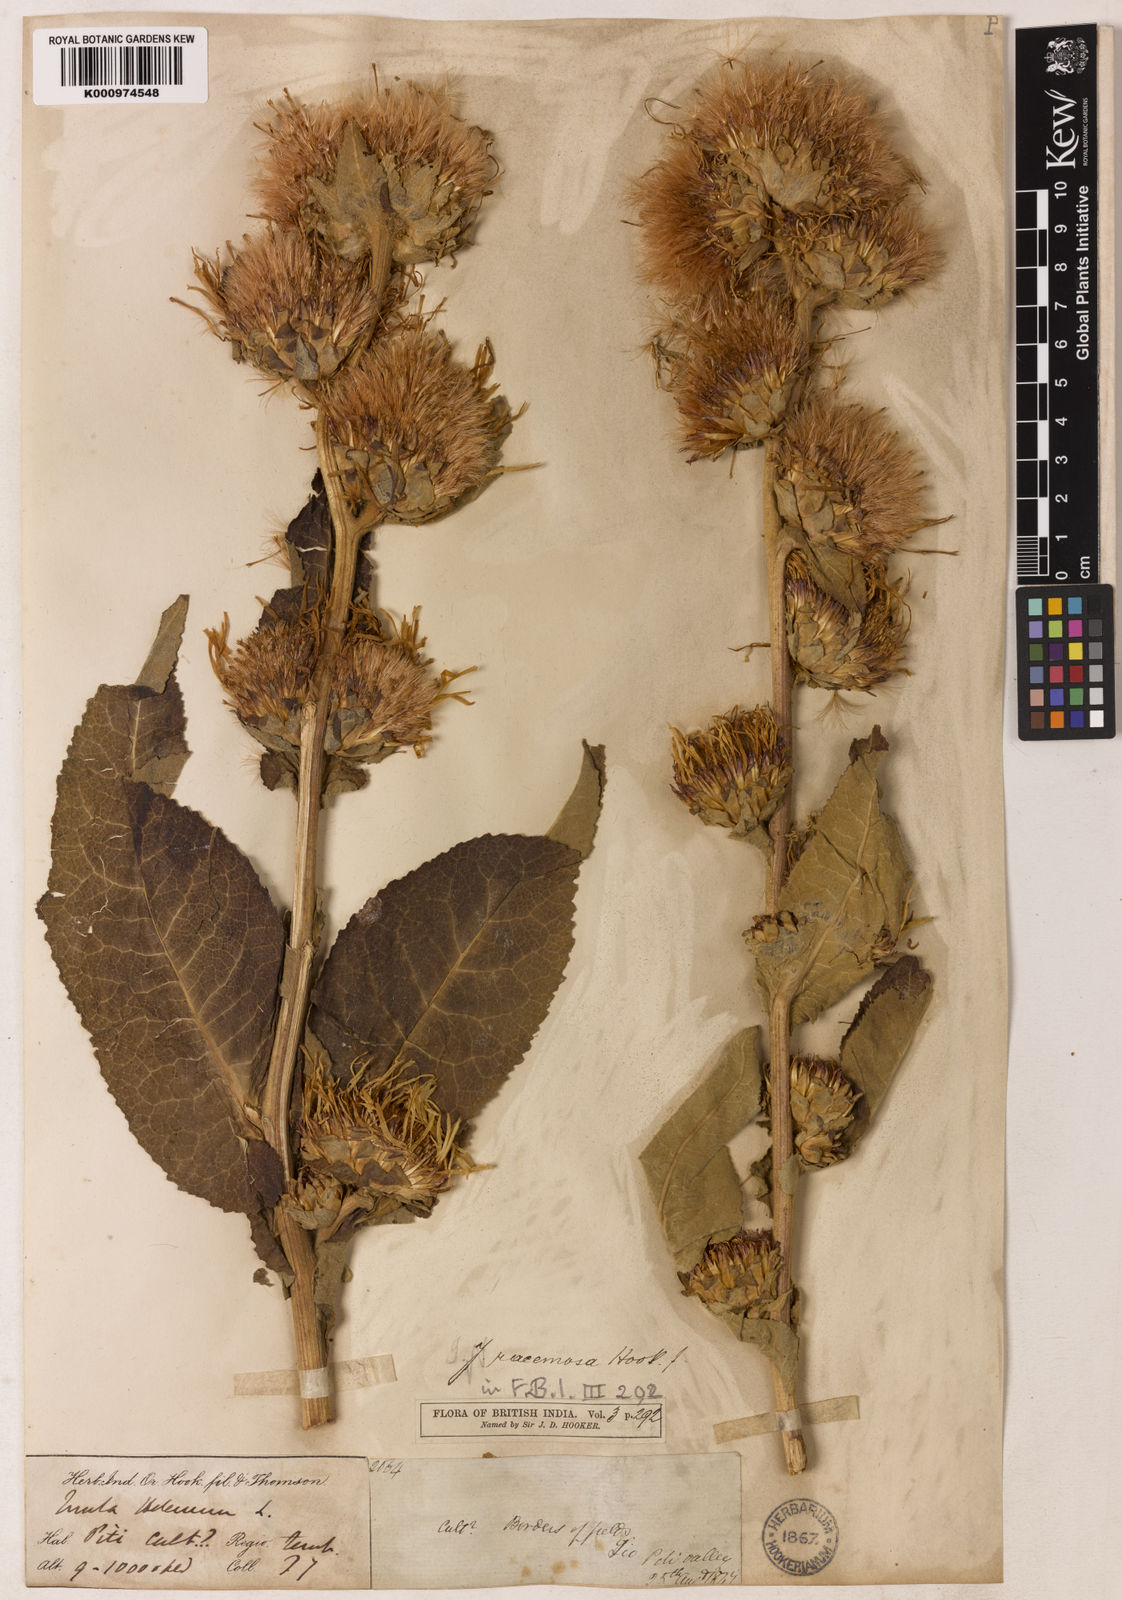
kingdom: Plantae
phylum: Tracheophyta
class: Magnoliopsida
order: Asterales
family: Asteraceae
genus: Inula
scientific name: Inula racemosa
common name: Indian elecampane
